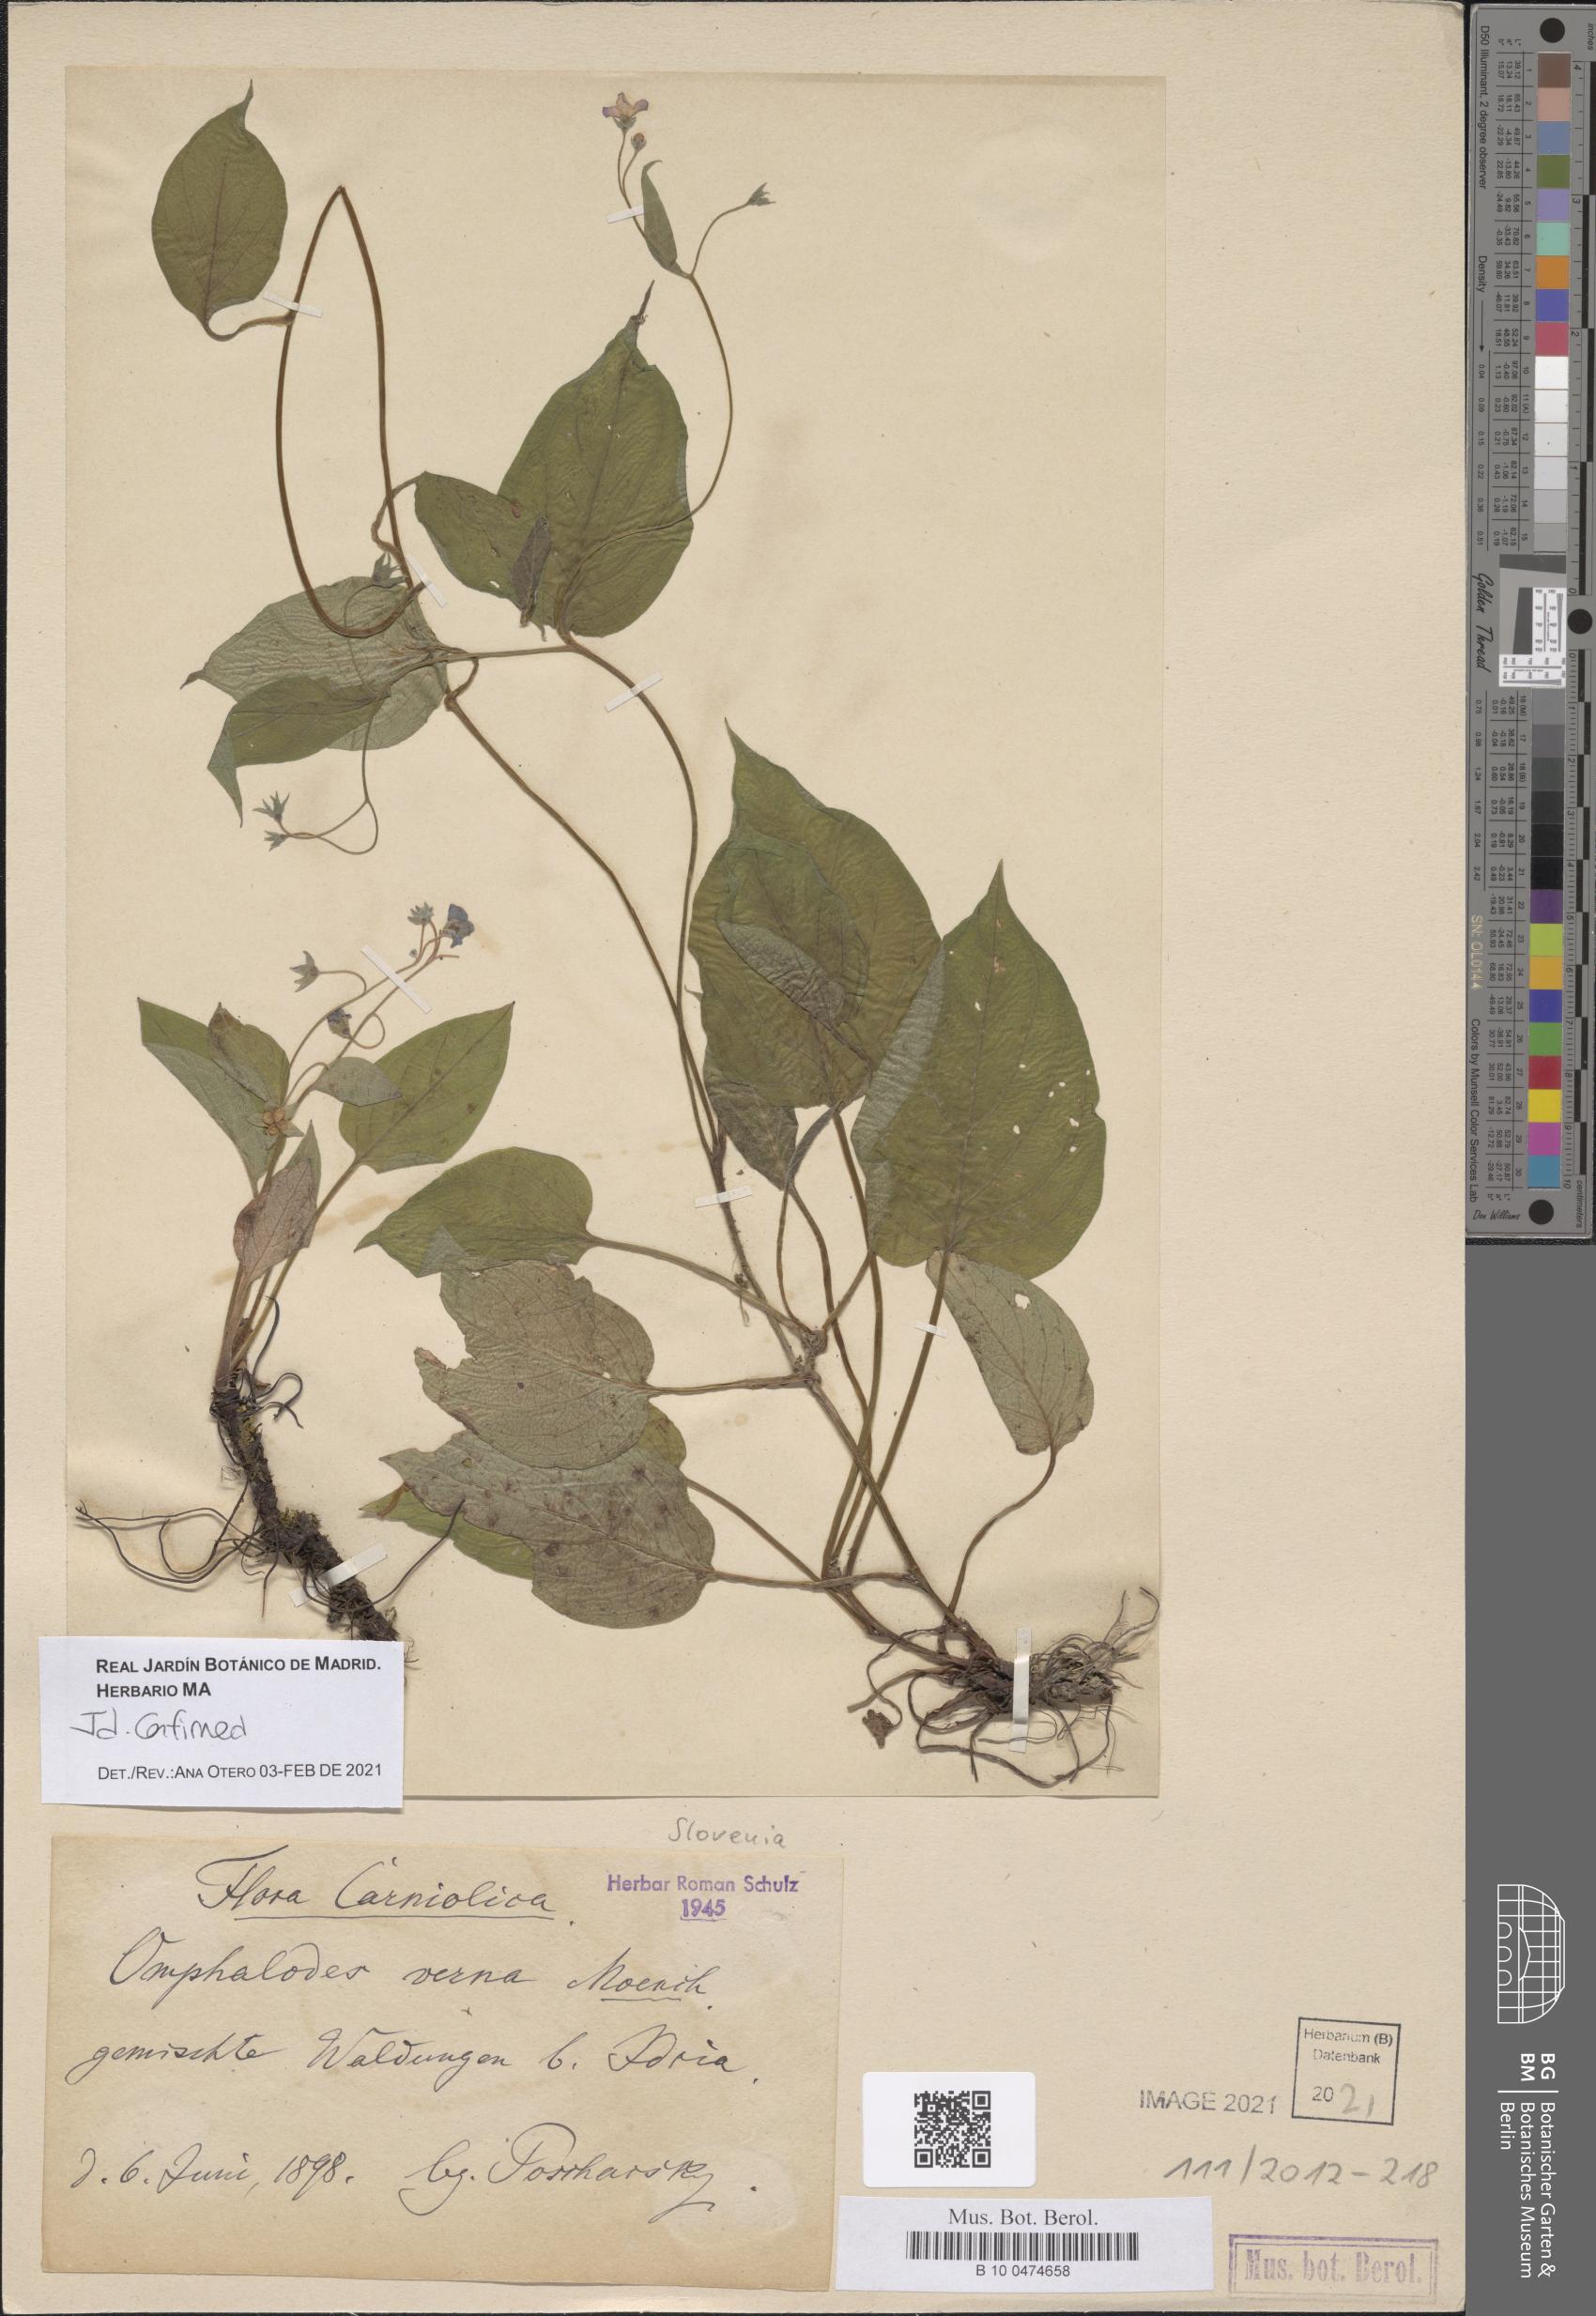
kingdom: Plantae
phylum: Tracheophyta
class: Magnoliopsida
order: Boraginales
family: Boraginaceae
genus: Omphalodes
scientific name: Omphalodes verna
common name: Blue-eyed-mary
